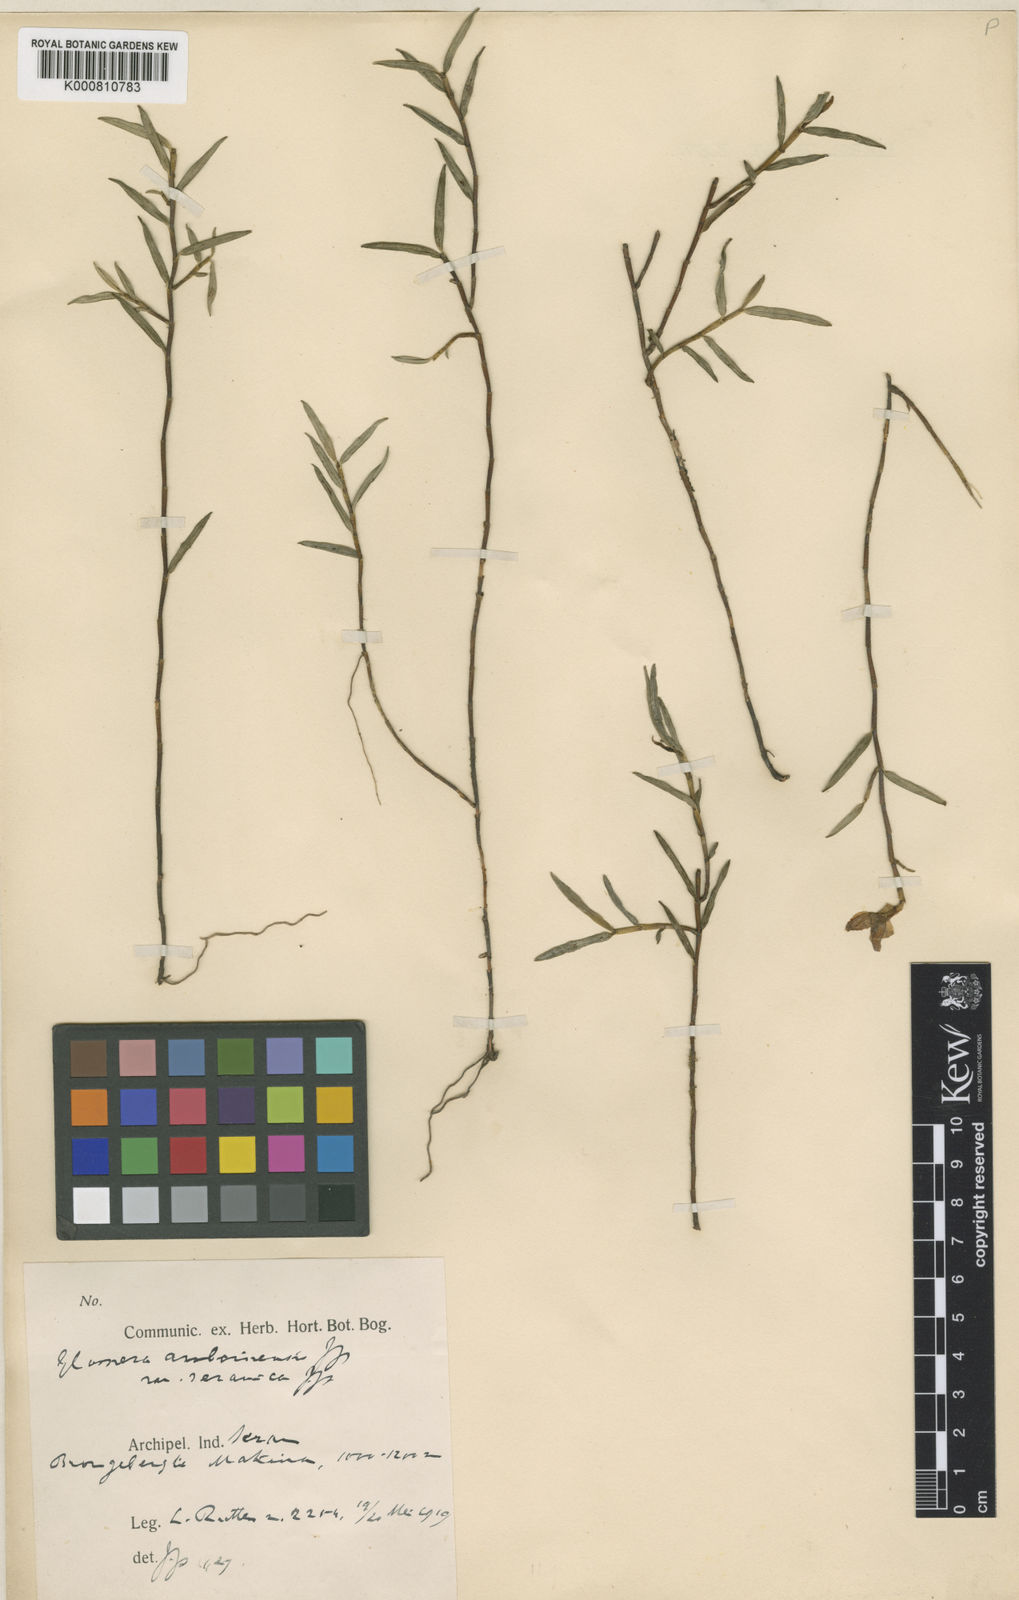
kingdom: Plantae
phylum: Tracheophyta
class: Liliopsida
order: Asparagales
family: Orchidaceae
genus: Glomera
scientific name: Glomera amboinensis
